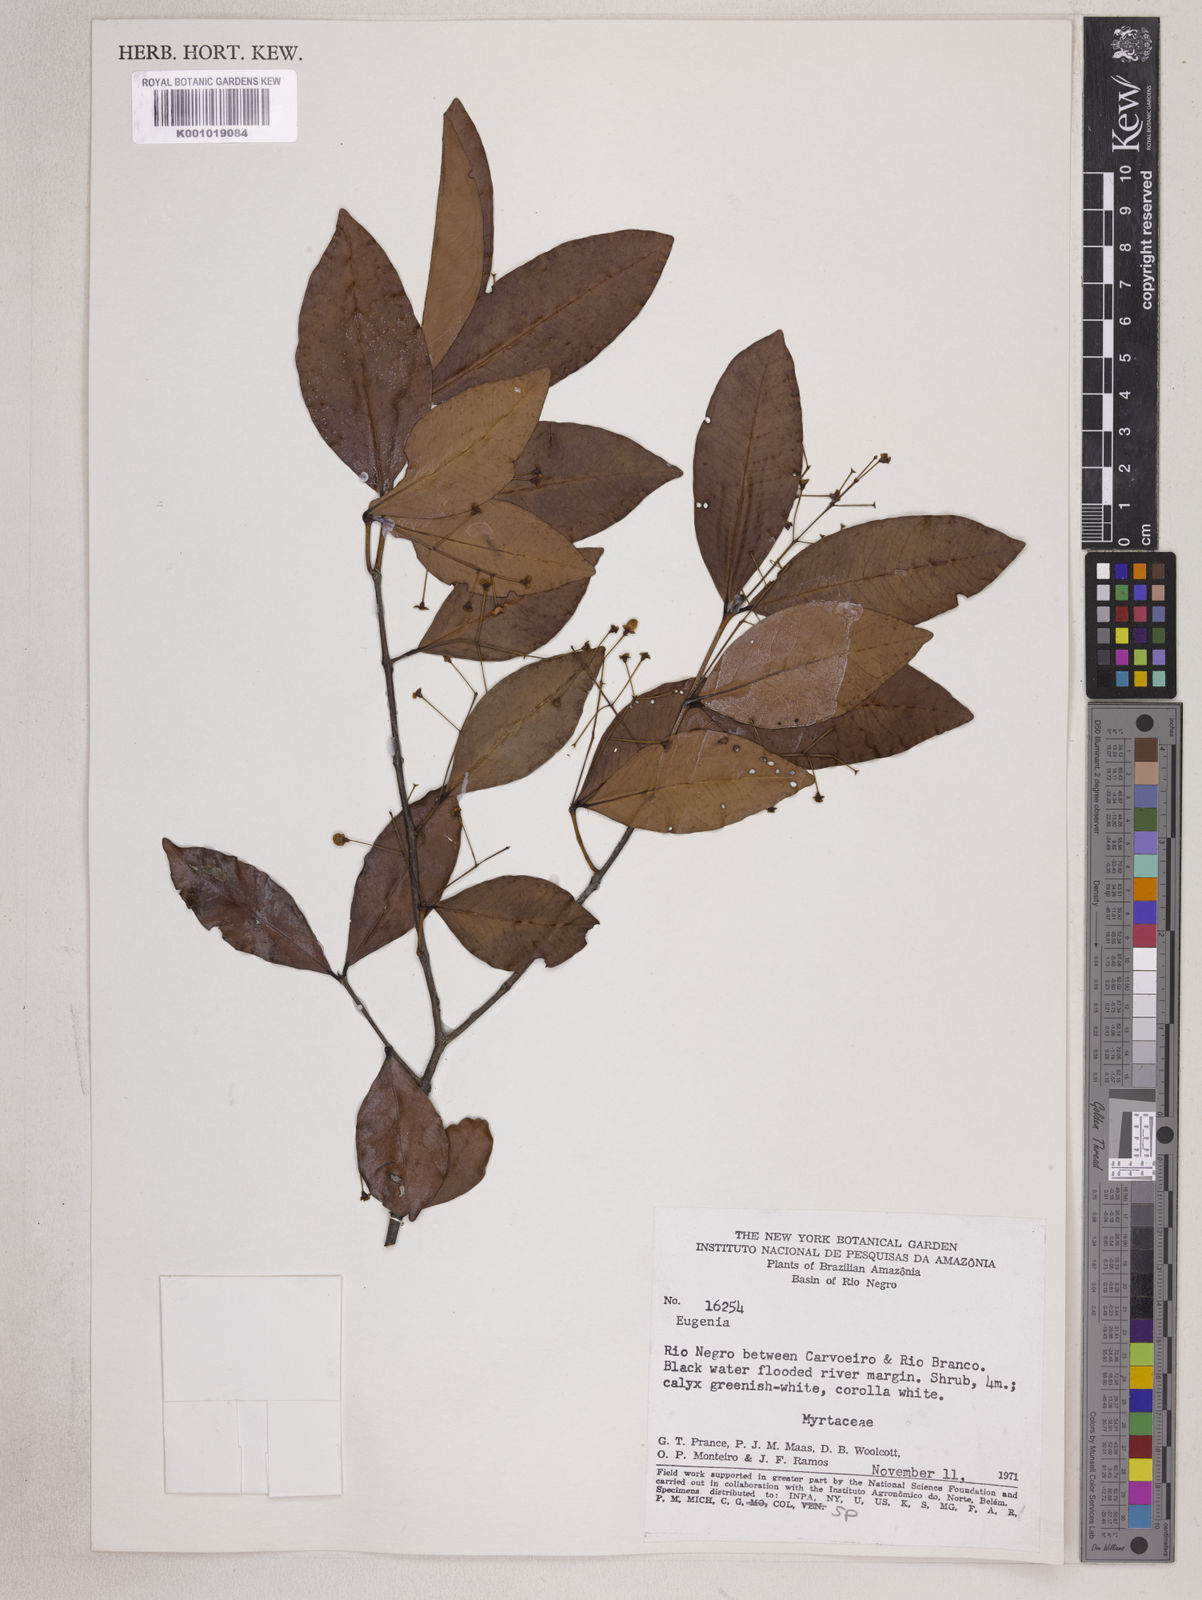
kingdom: Plantae
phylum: Tracheophyta
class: Magnoliopsida
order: Myrtales
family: Myrtaceae
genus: Eugenia
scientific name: Eugenia longiracemosa
